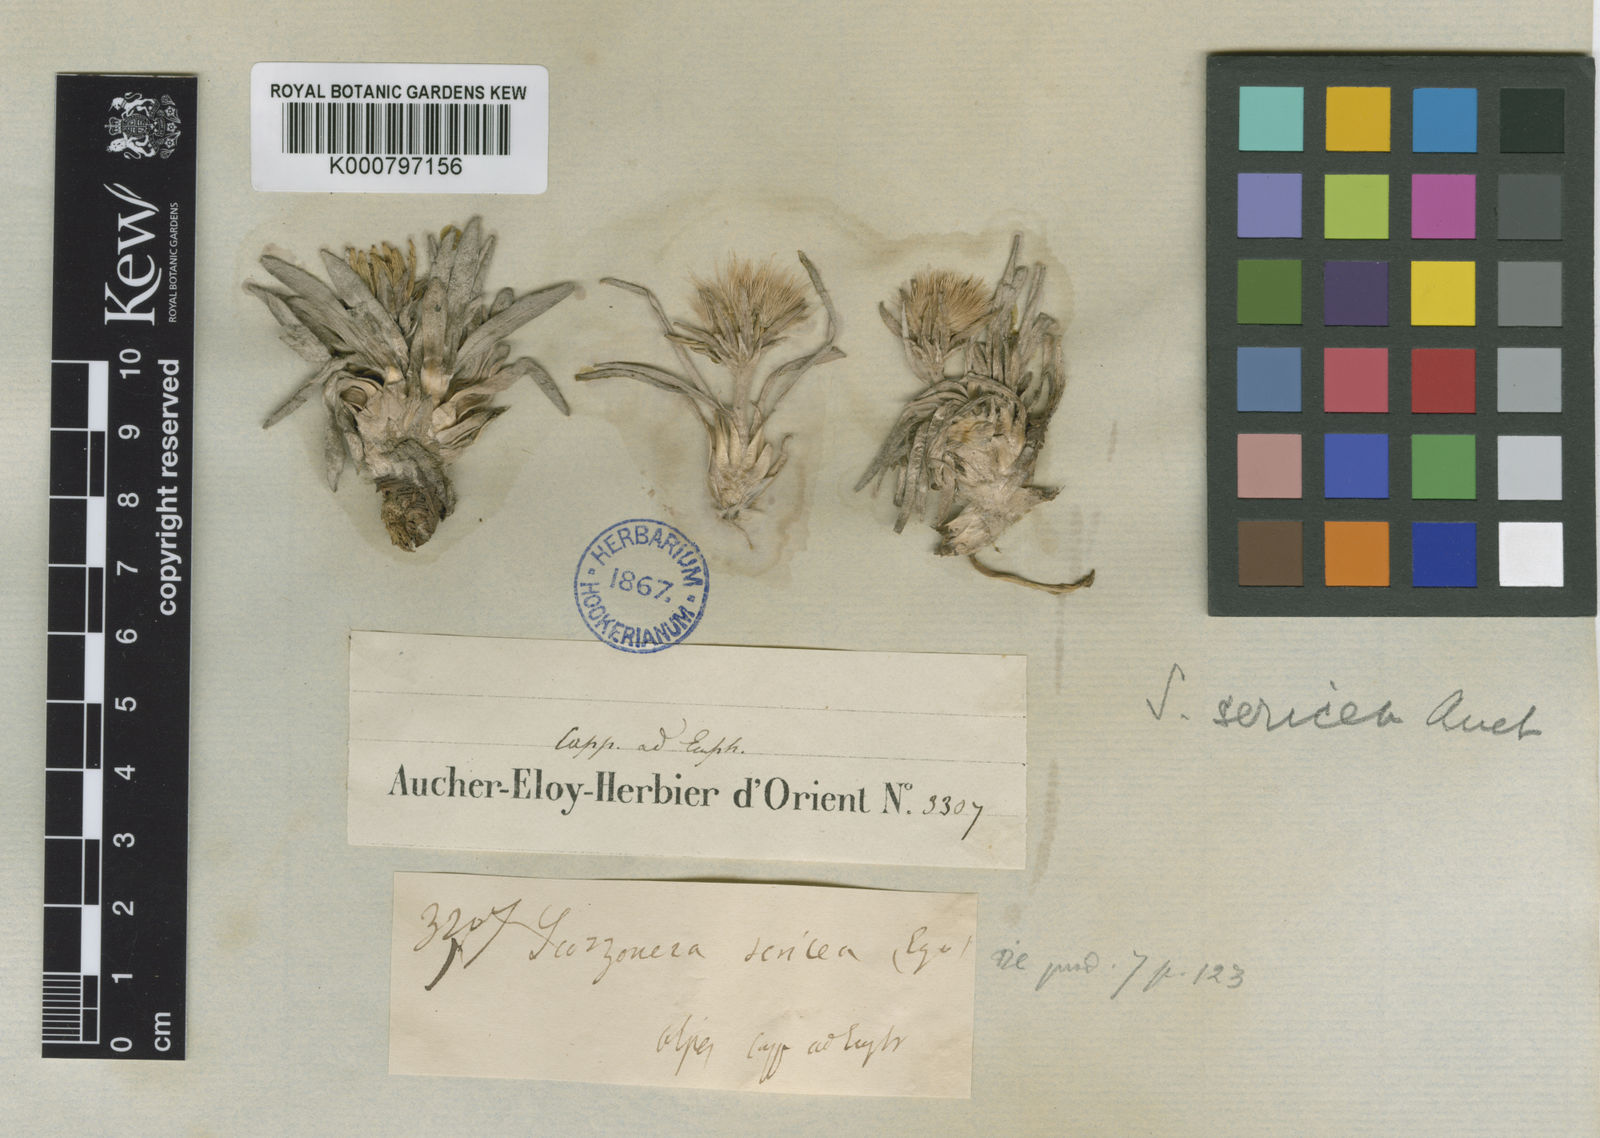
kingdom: Plantae
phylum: Tracheophyta
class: Magnoliopsida
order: Asterales
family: Asteraceae
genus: Goekyighitia
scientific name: Goekyighitia sericea
